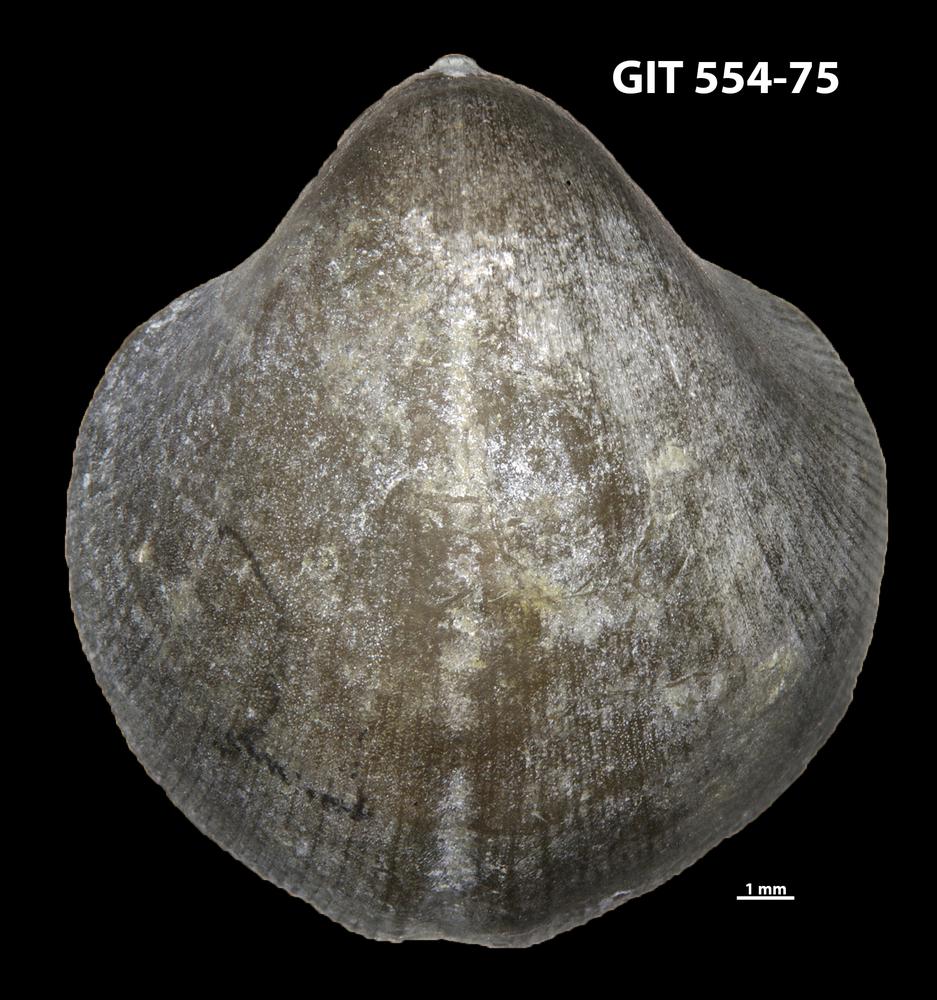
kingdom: Animalia
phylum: Brachiopoda
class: Rhynchonellata
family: Dalmanellidae
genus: Visbyella
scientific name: Visbyella Orthis visbyensis
